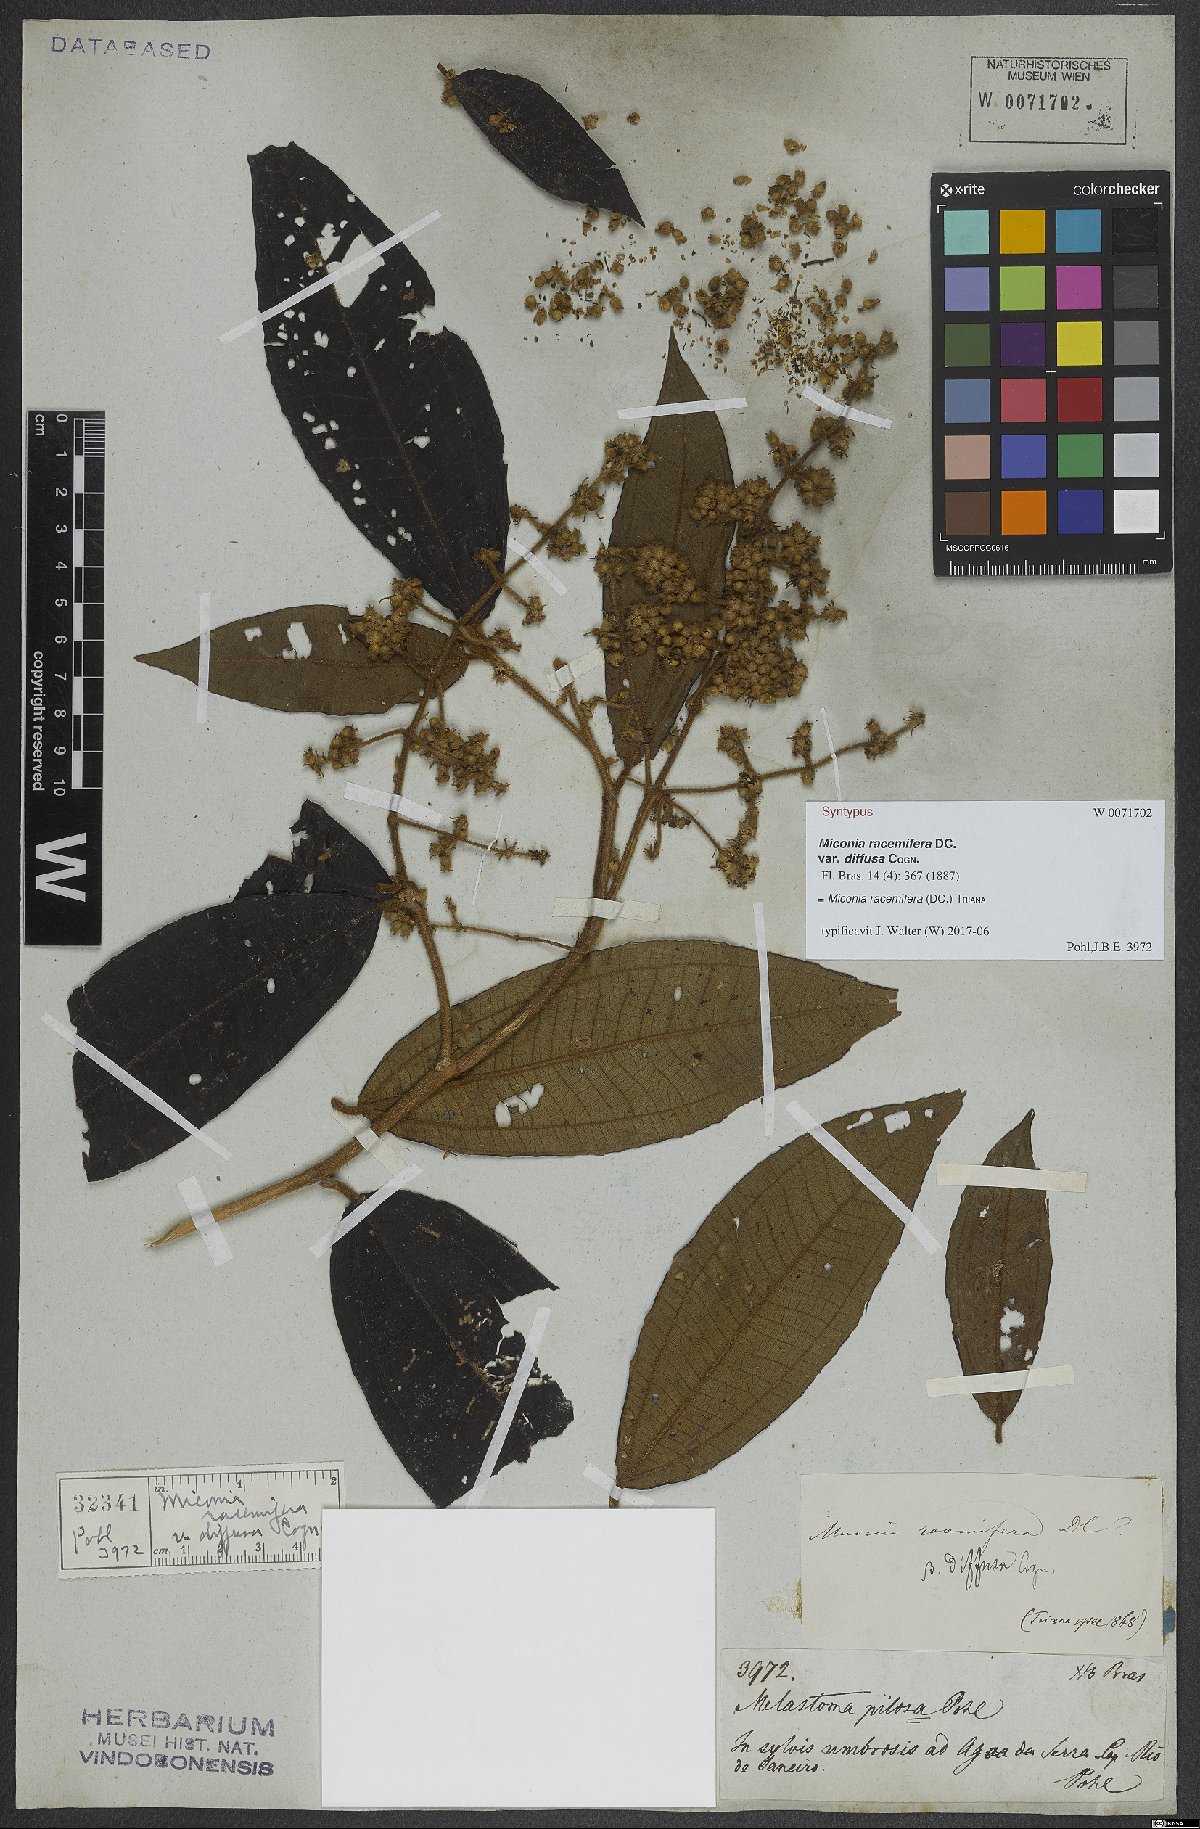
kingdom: Plantae
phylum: Tracheophyta
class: Magnoliopsida
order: Myrtales
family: Melastomataceae
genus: Miconia
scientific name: Miconia racemifera
